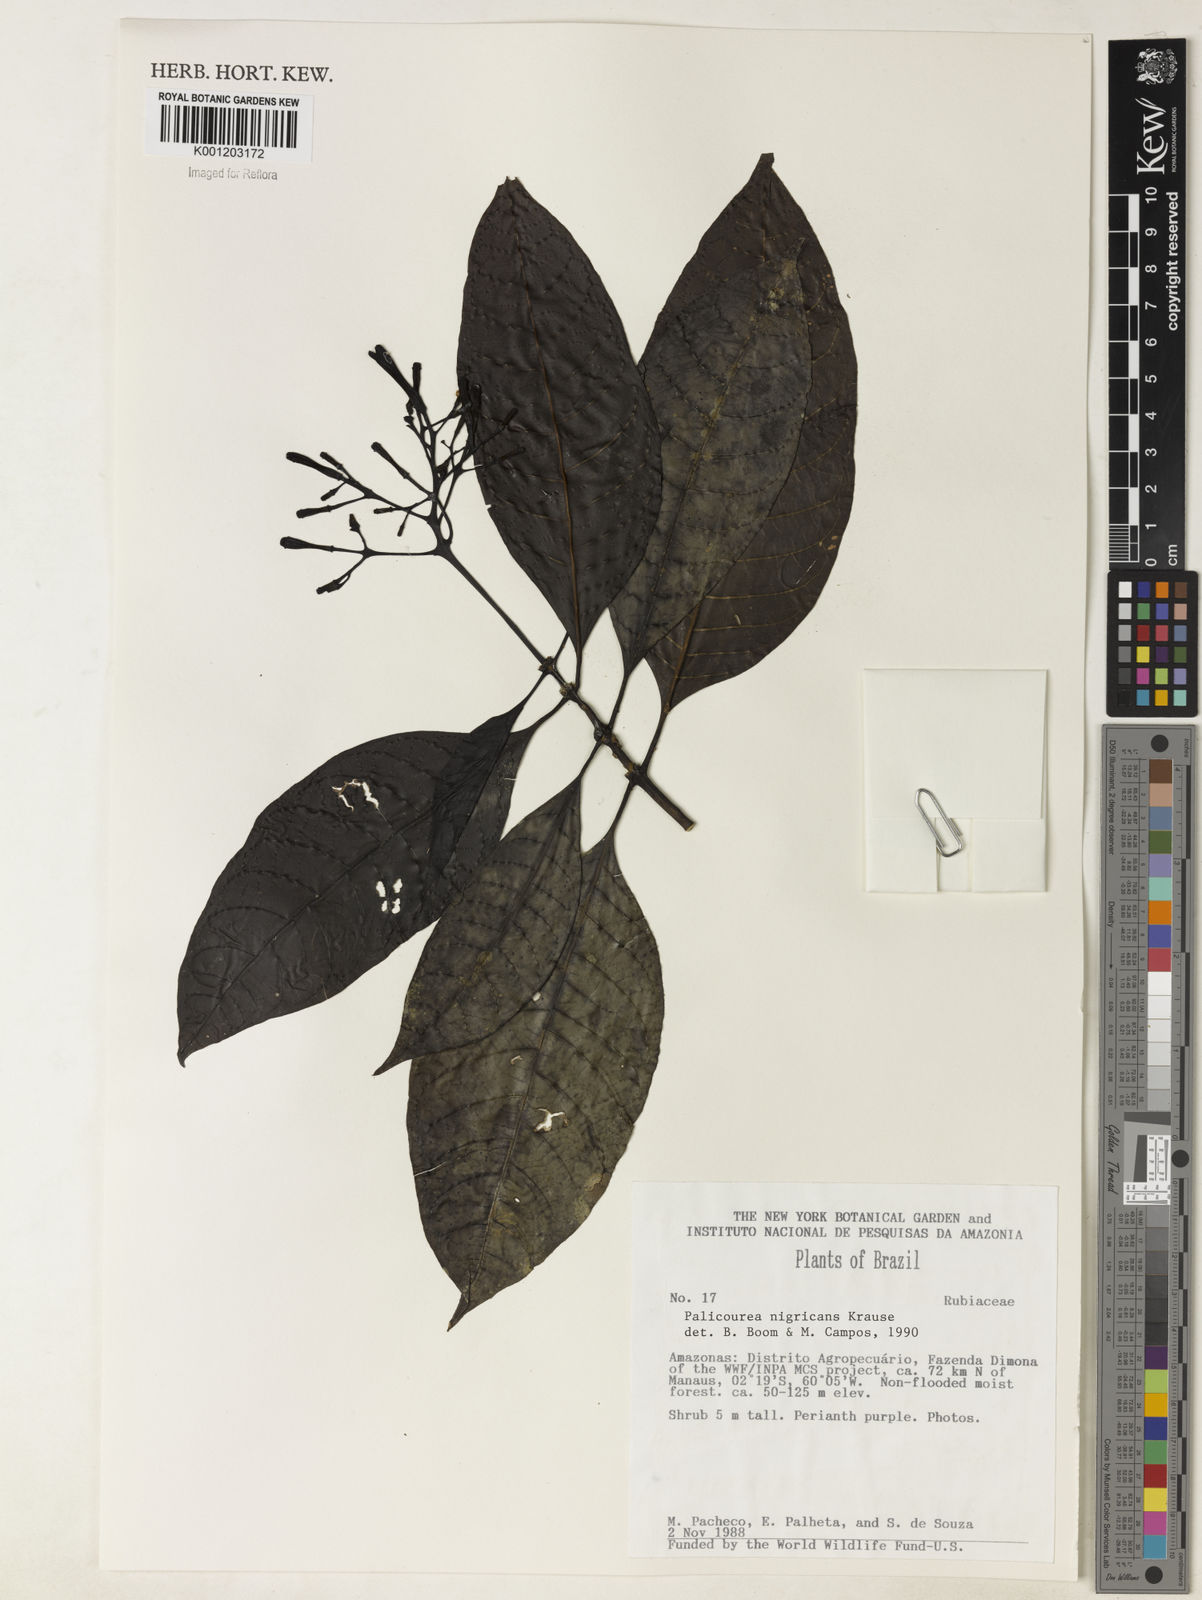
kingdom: Plantae
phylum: Tracheophyta
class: Magnoliopsida
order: Gentianales
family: Rubiaceae
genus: Palicourea
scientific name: Palicourea nigricans
